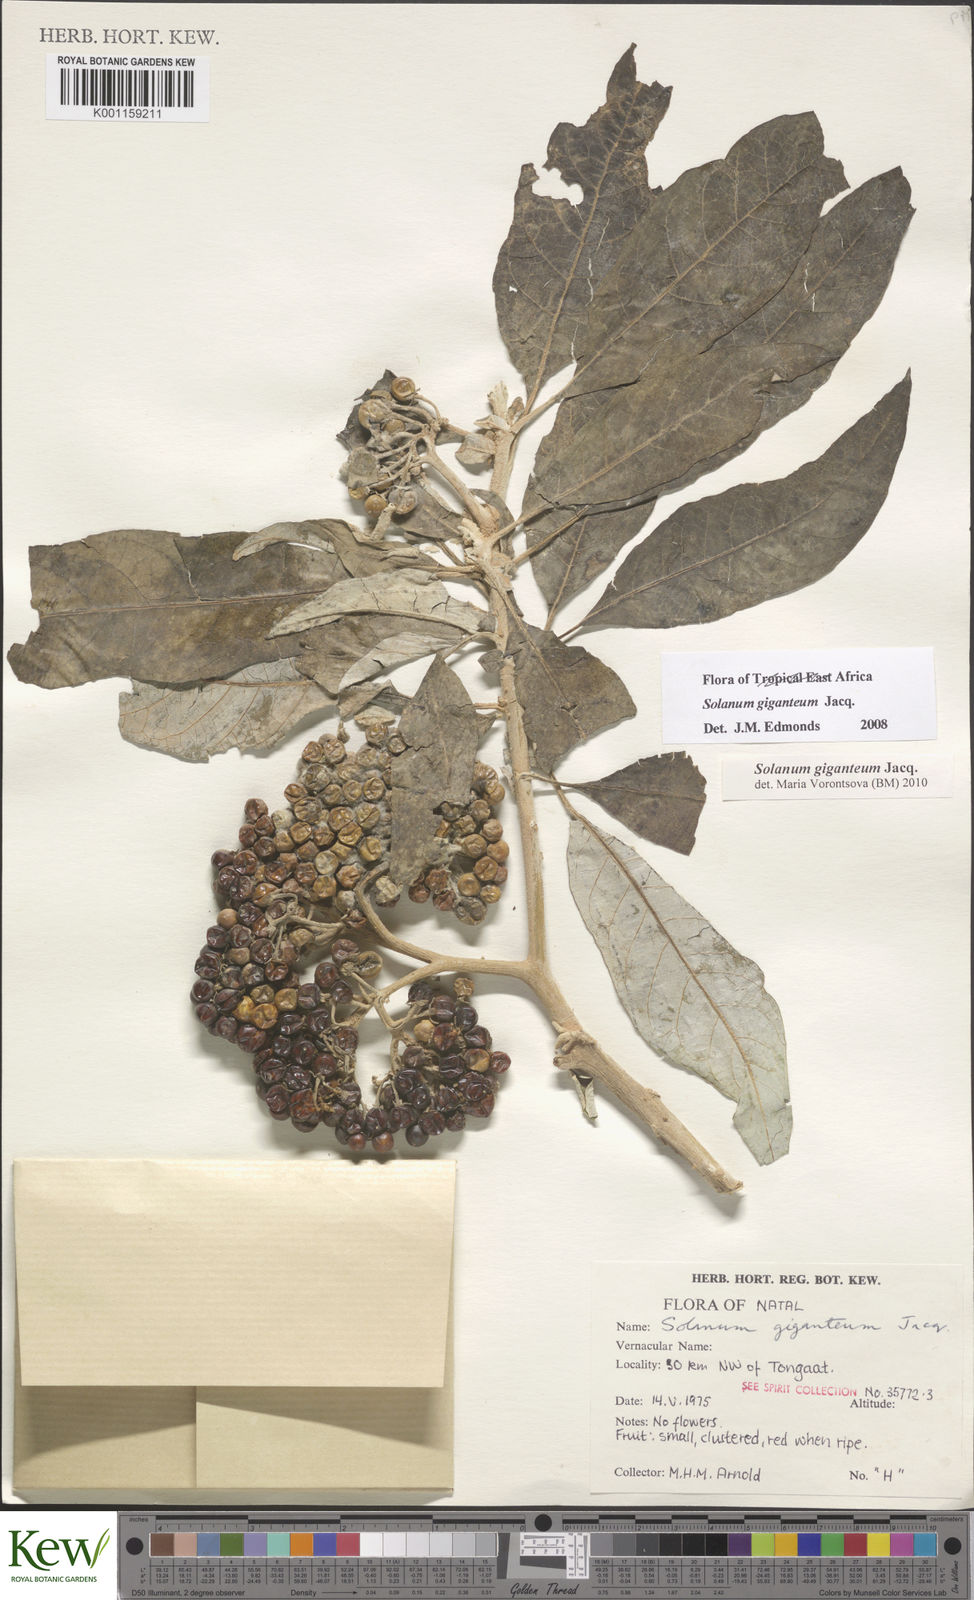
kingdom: Plantae
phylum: Tracheophyta
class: Magnoliopsida
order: Solanales
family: Solanaceae
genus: Solanum
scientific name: Solanum giganteum
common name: Healing-leaf-tree
